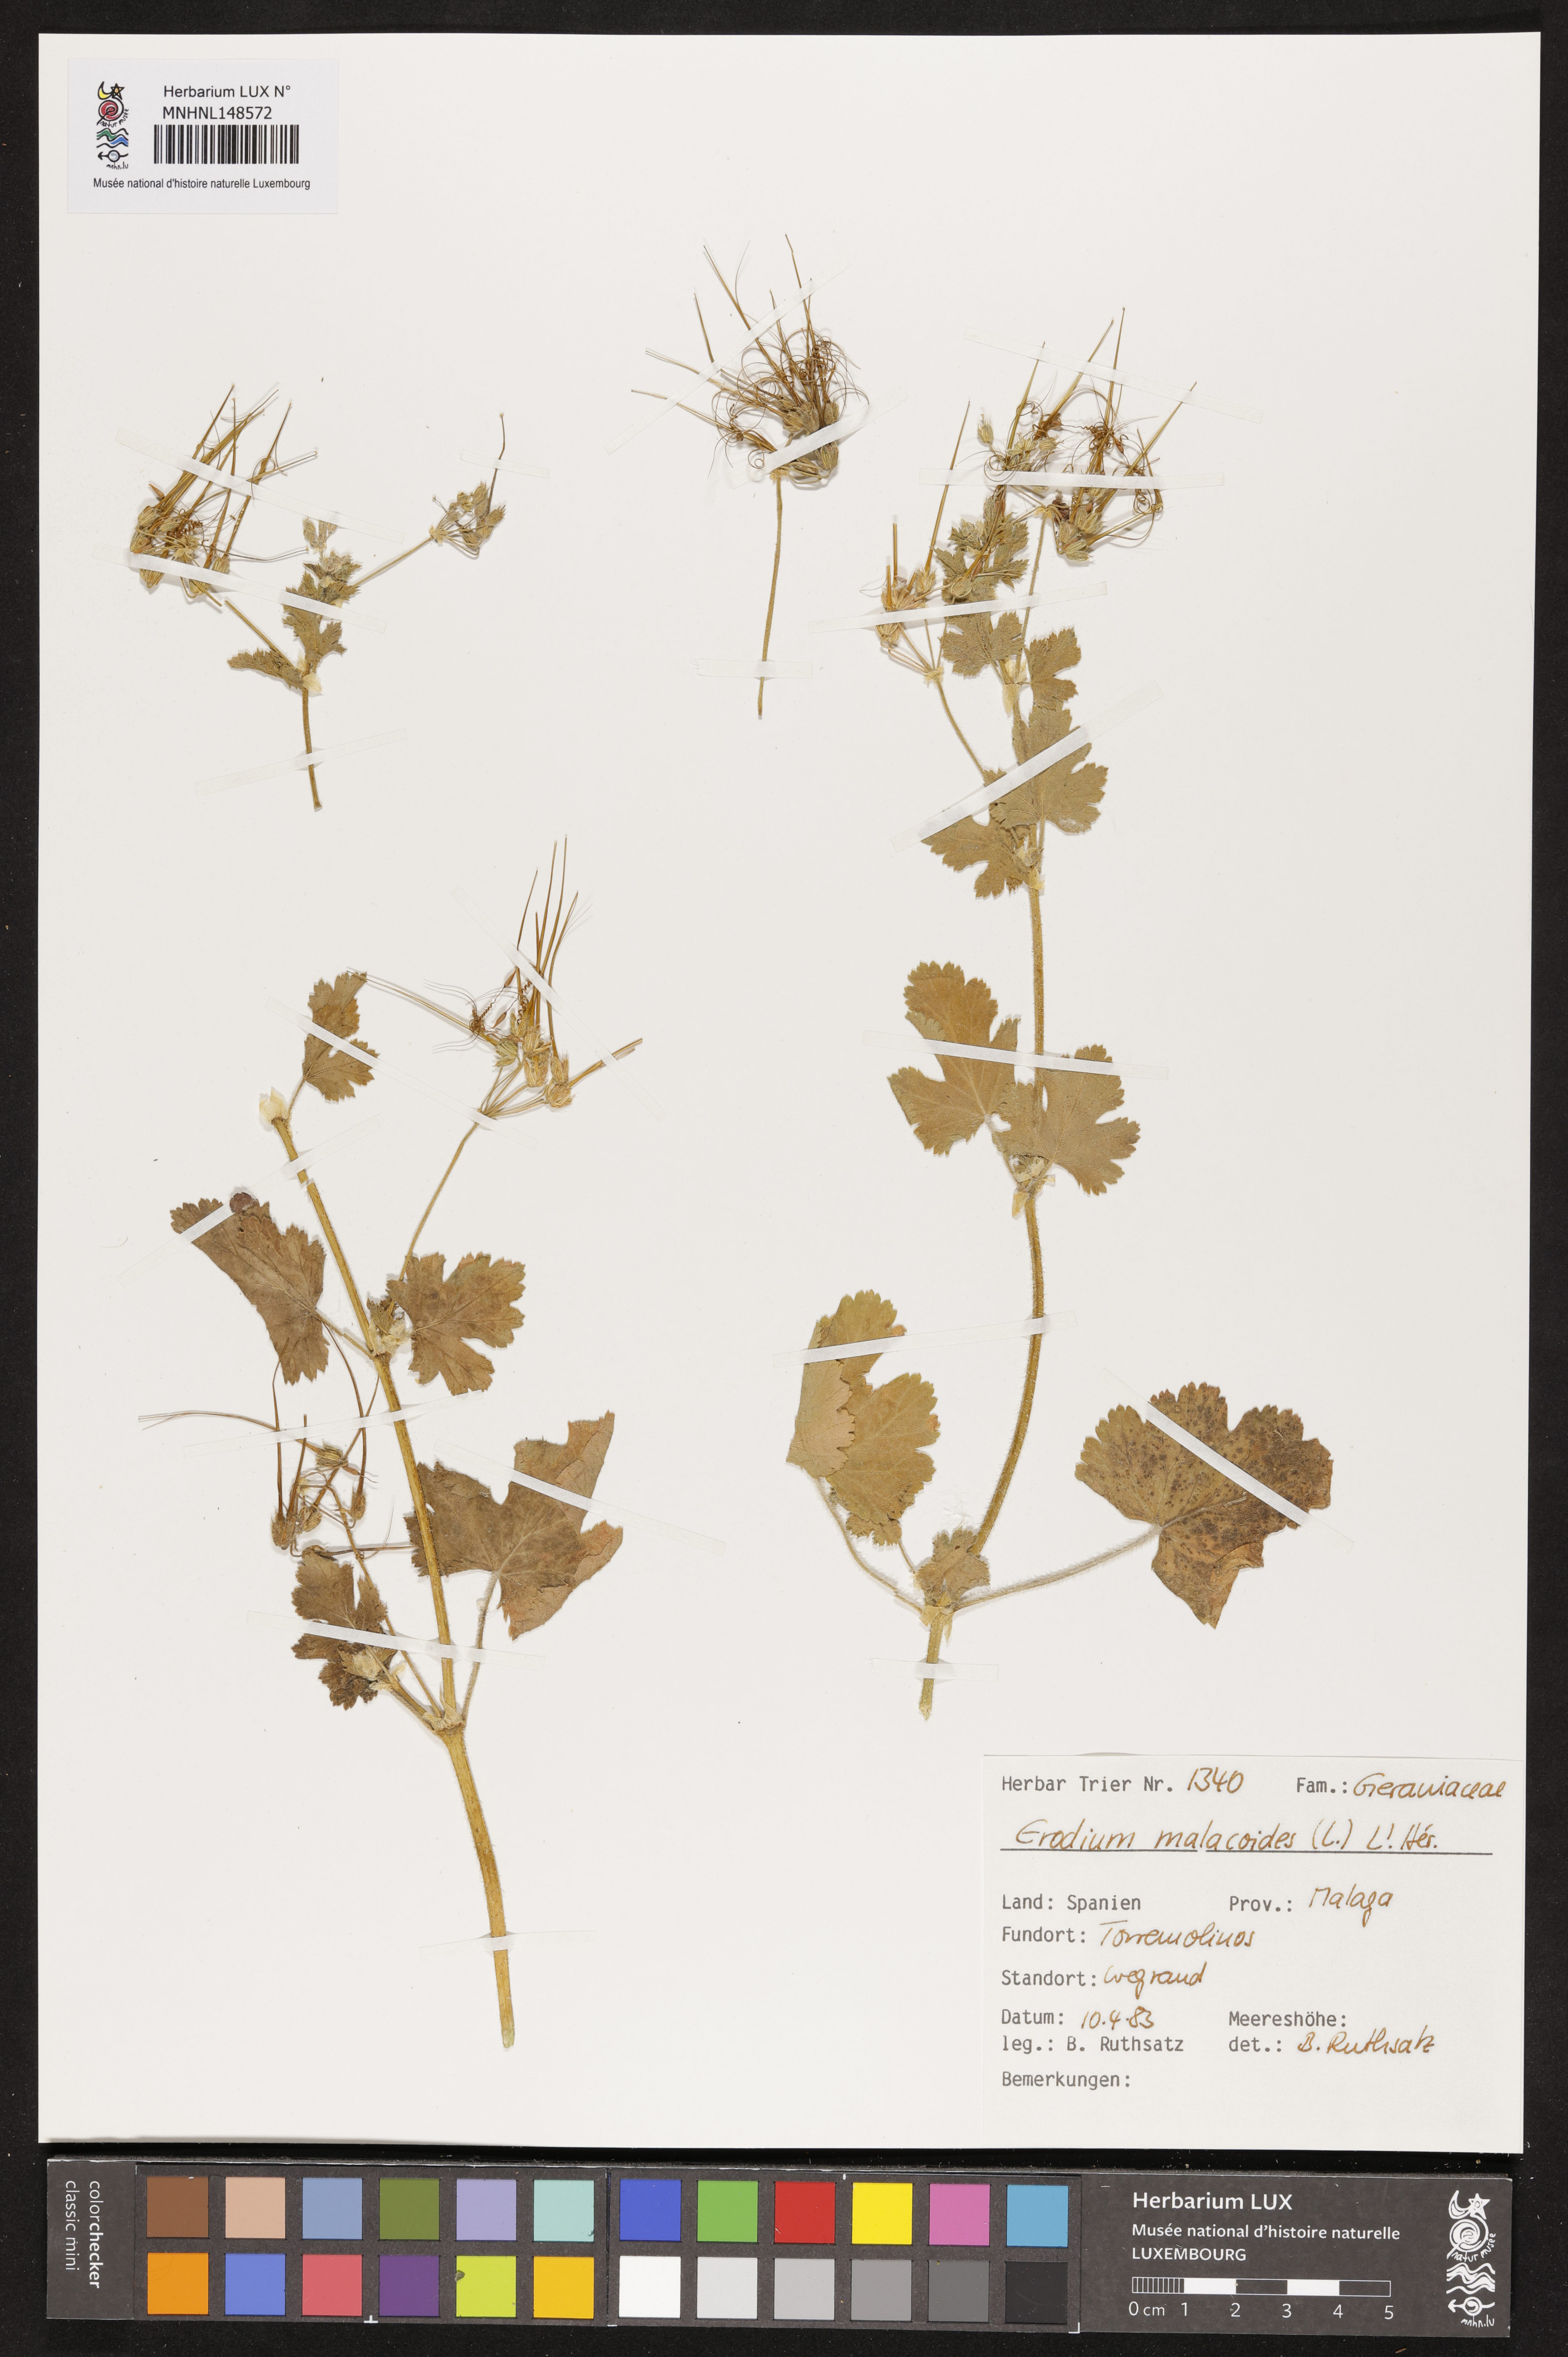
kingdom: Plantae
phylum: Tracheophyta
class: Magnoliopsida
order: Geraniales
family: Geraniaceae
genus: Erodium
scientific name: Erodium malacoides
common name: Soft stork's-bill
